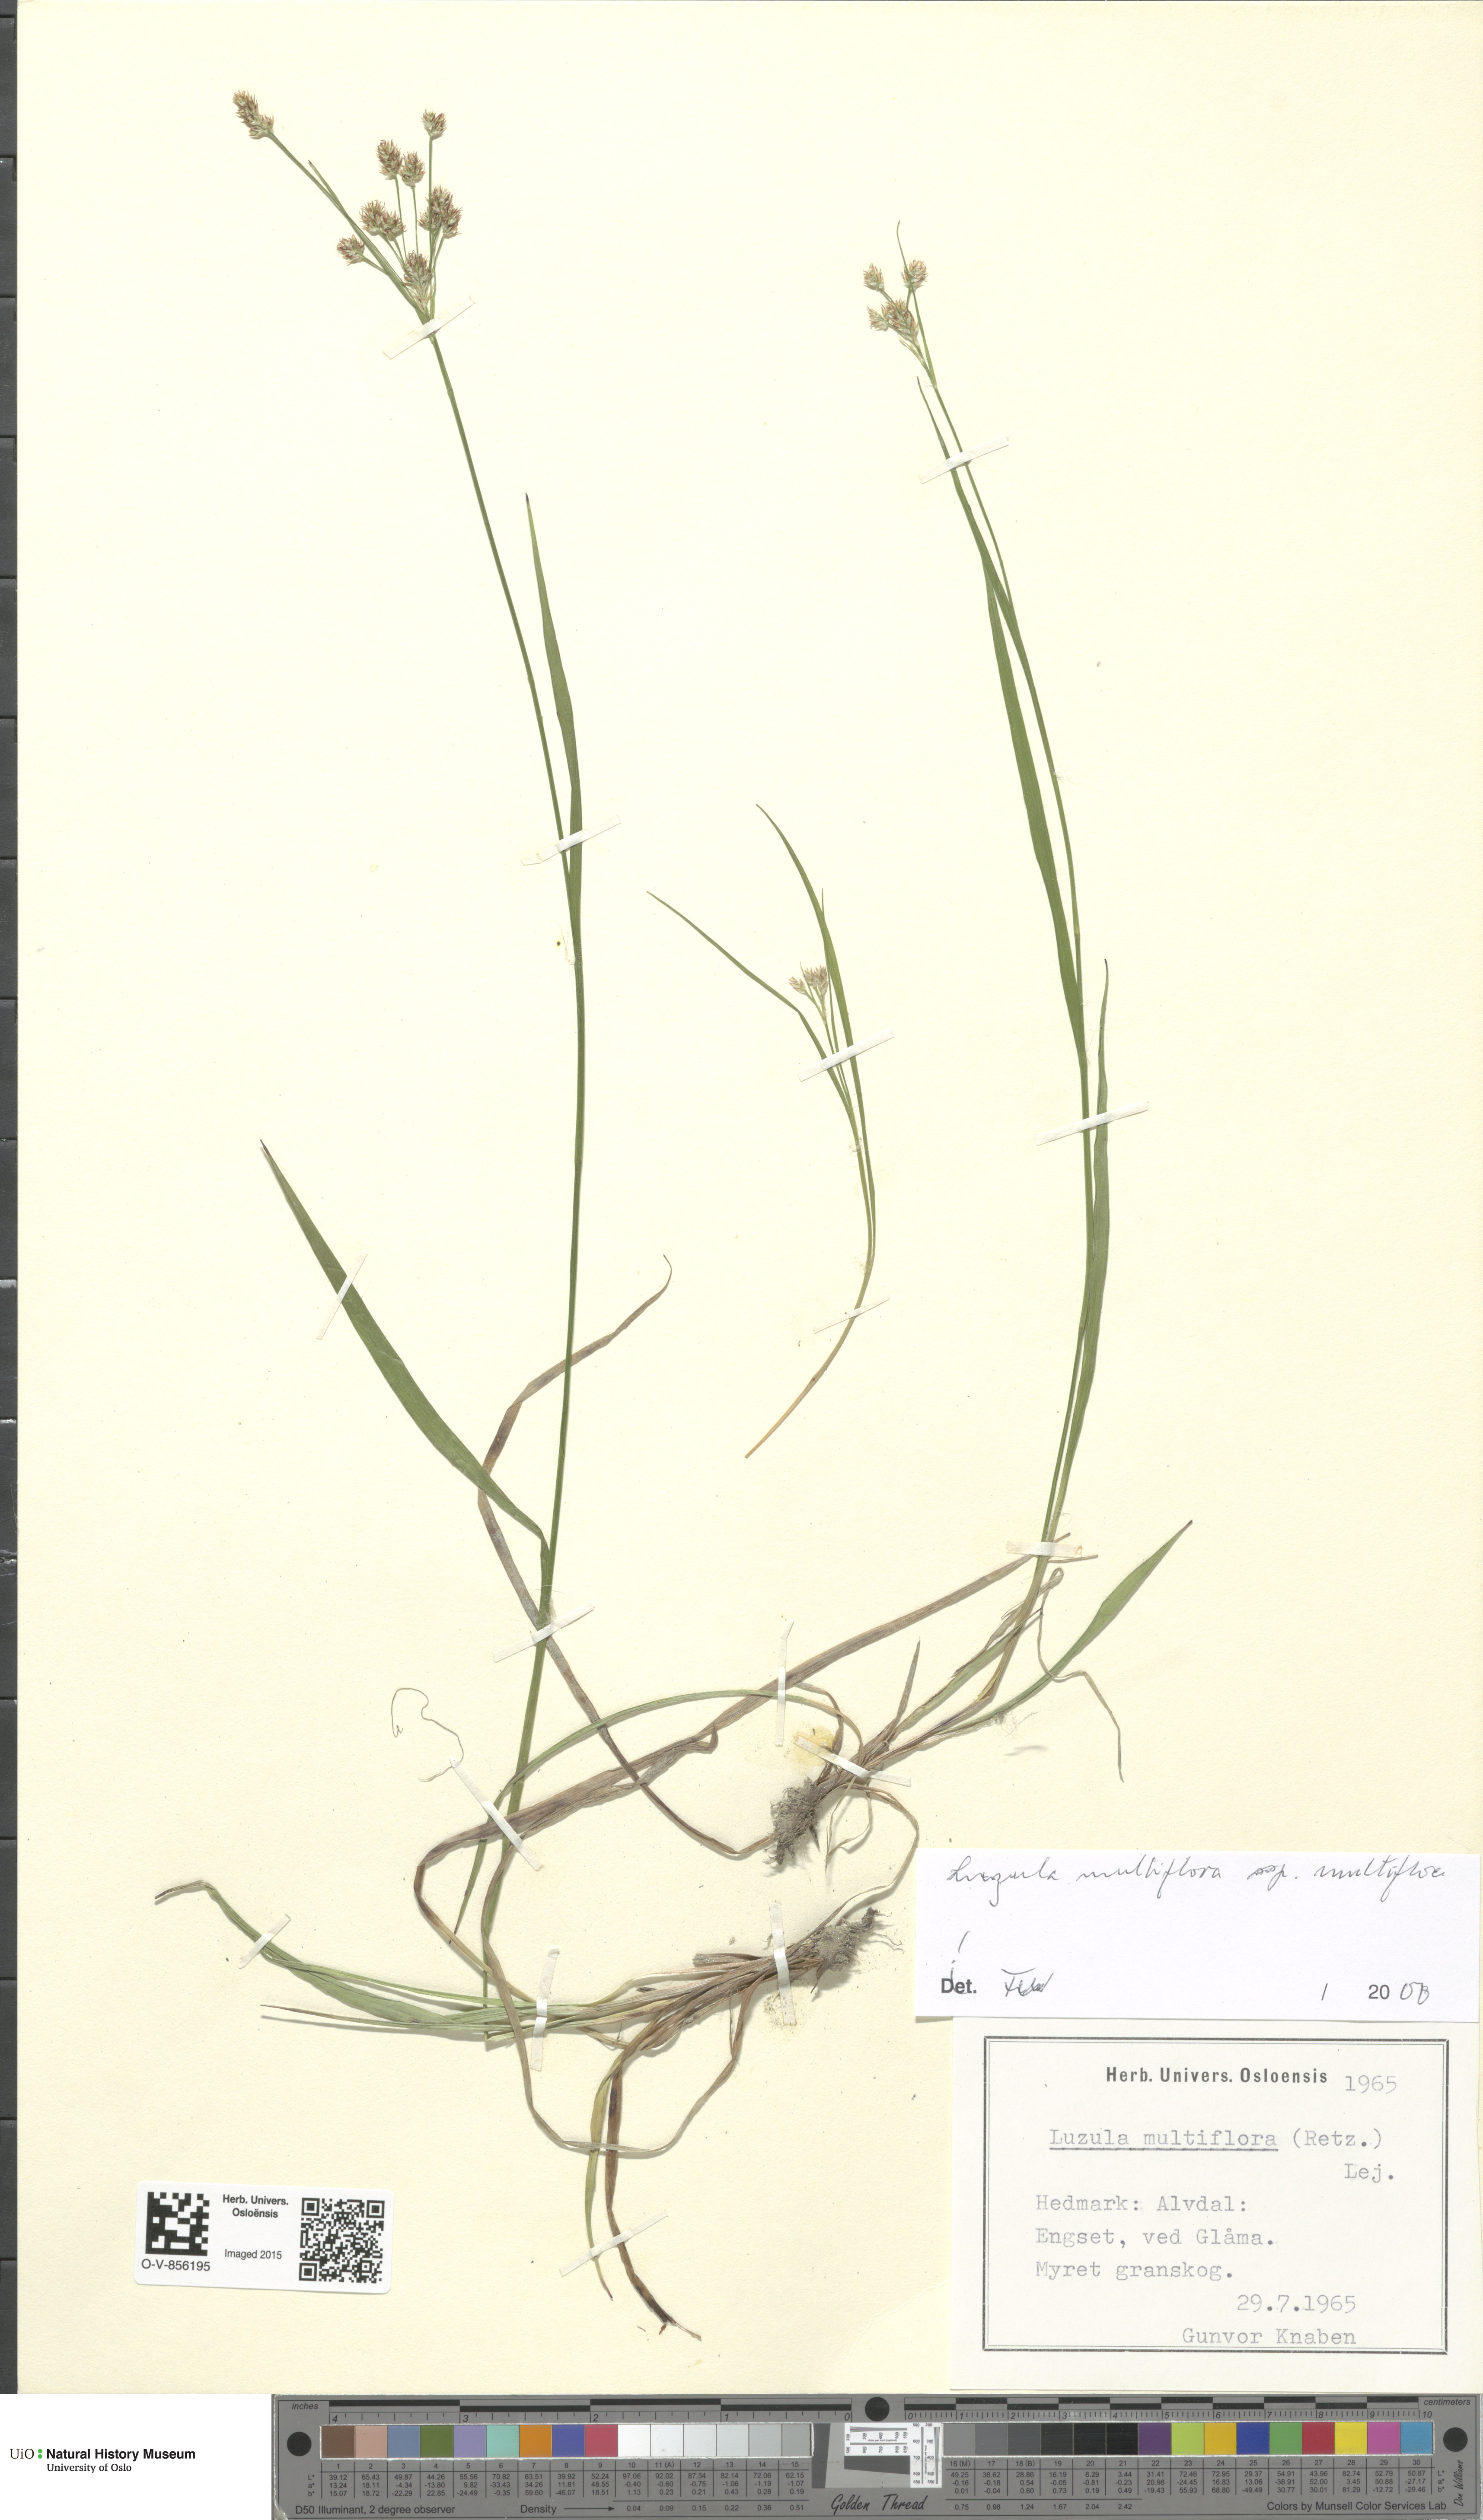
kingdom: Plantae
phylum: Tracheophyta
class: Liliopsida
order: Poales
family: Juncaceae
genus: Luzula
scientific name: Luzula multiflora
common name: Heath wood-rush
